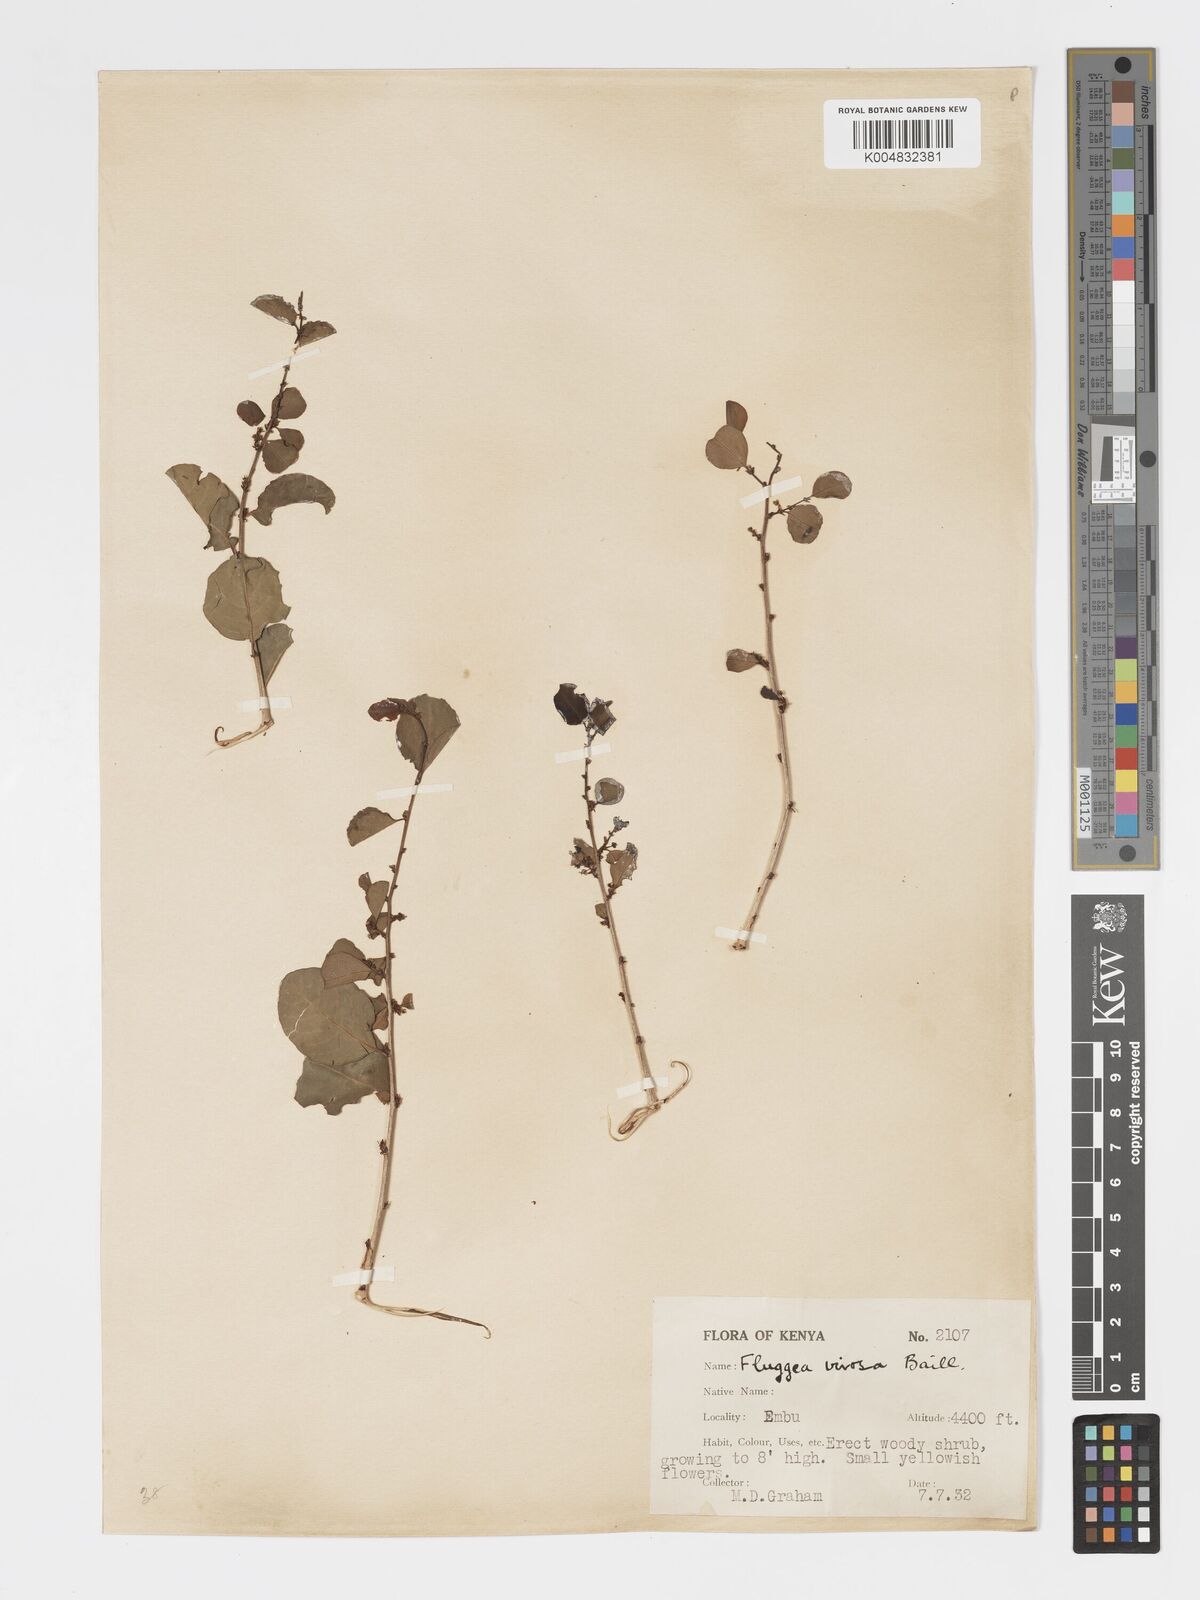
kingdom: Plantae
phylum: Tracheophyta
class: Magnoliopsida
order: Malpighiales
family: Phyllanthaceae
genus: Flueggea
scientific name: Flueggea
